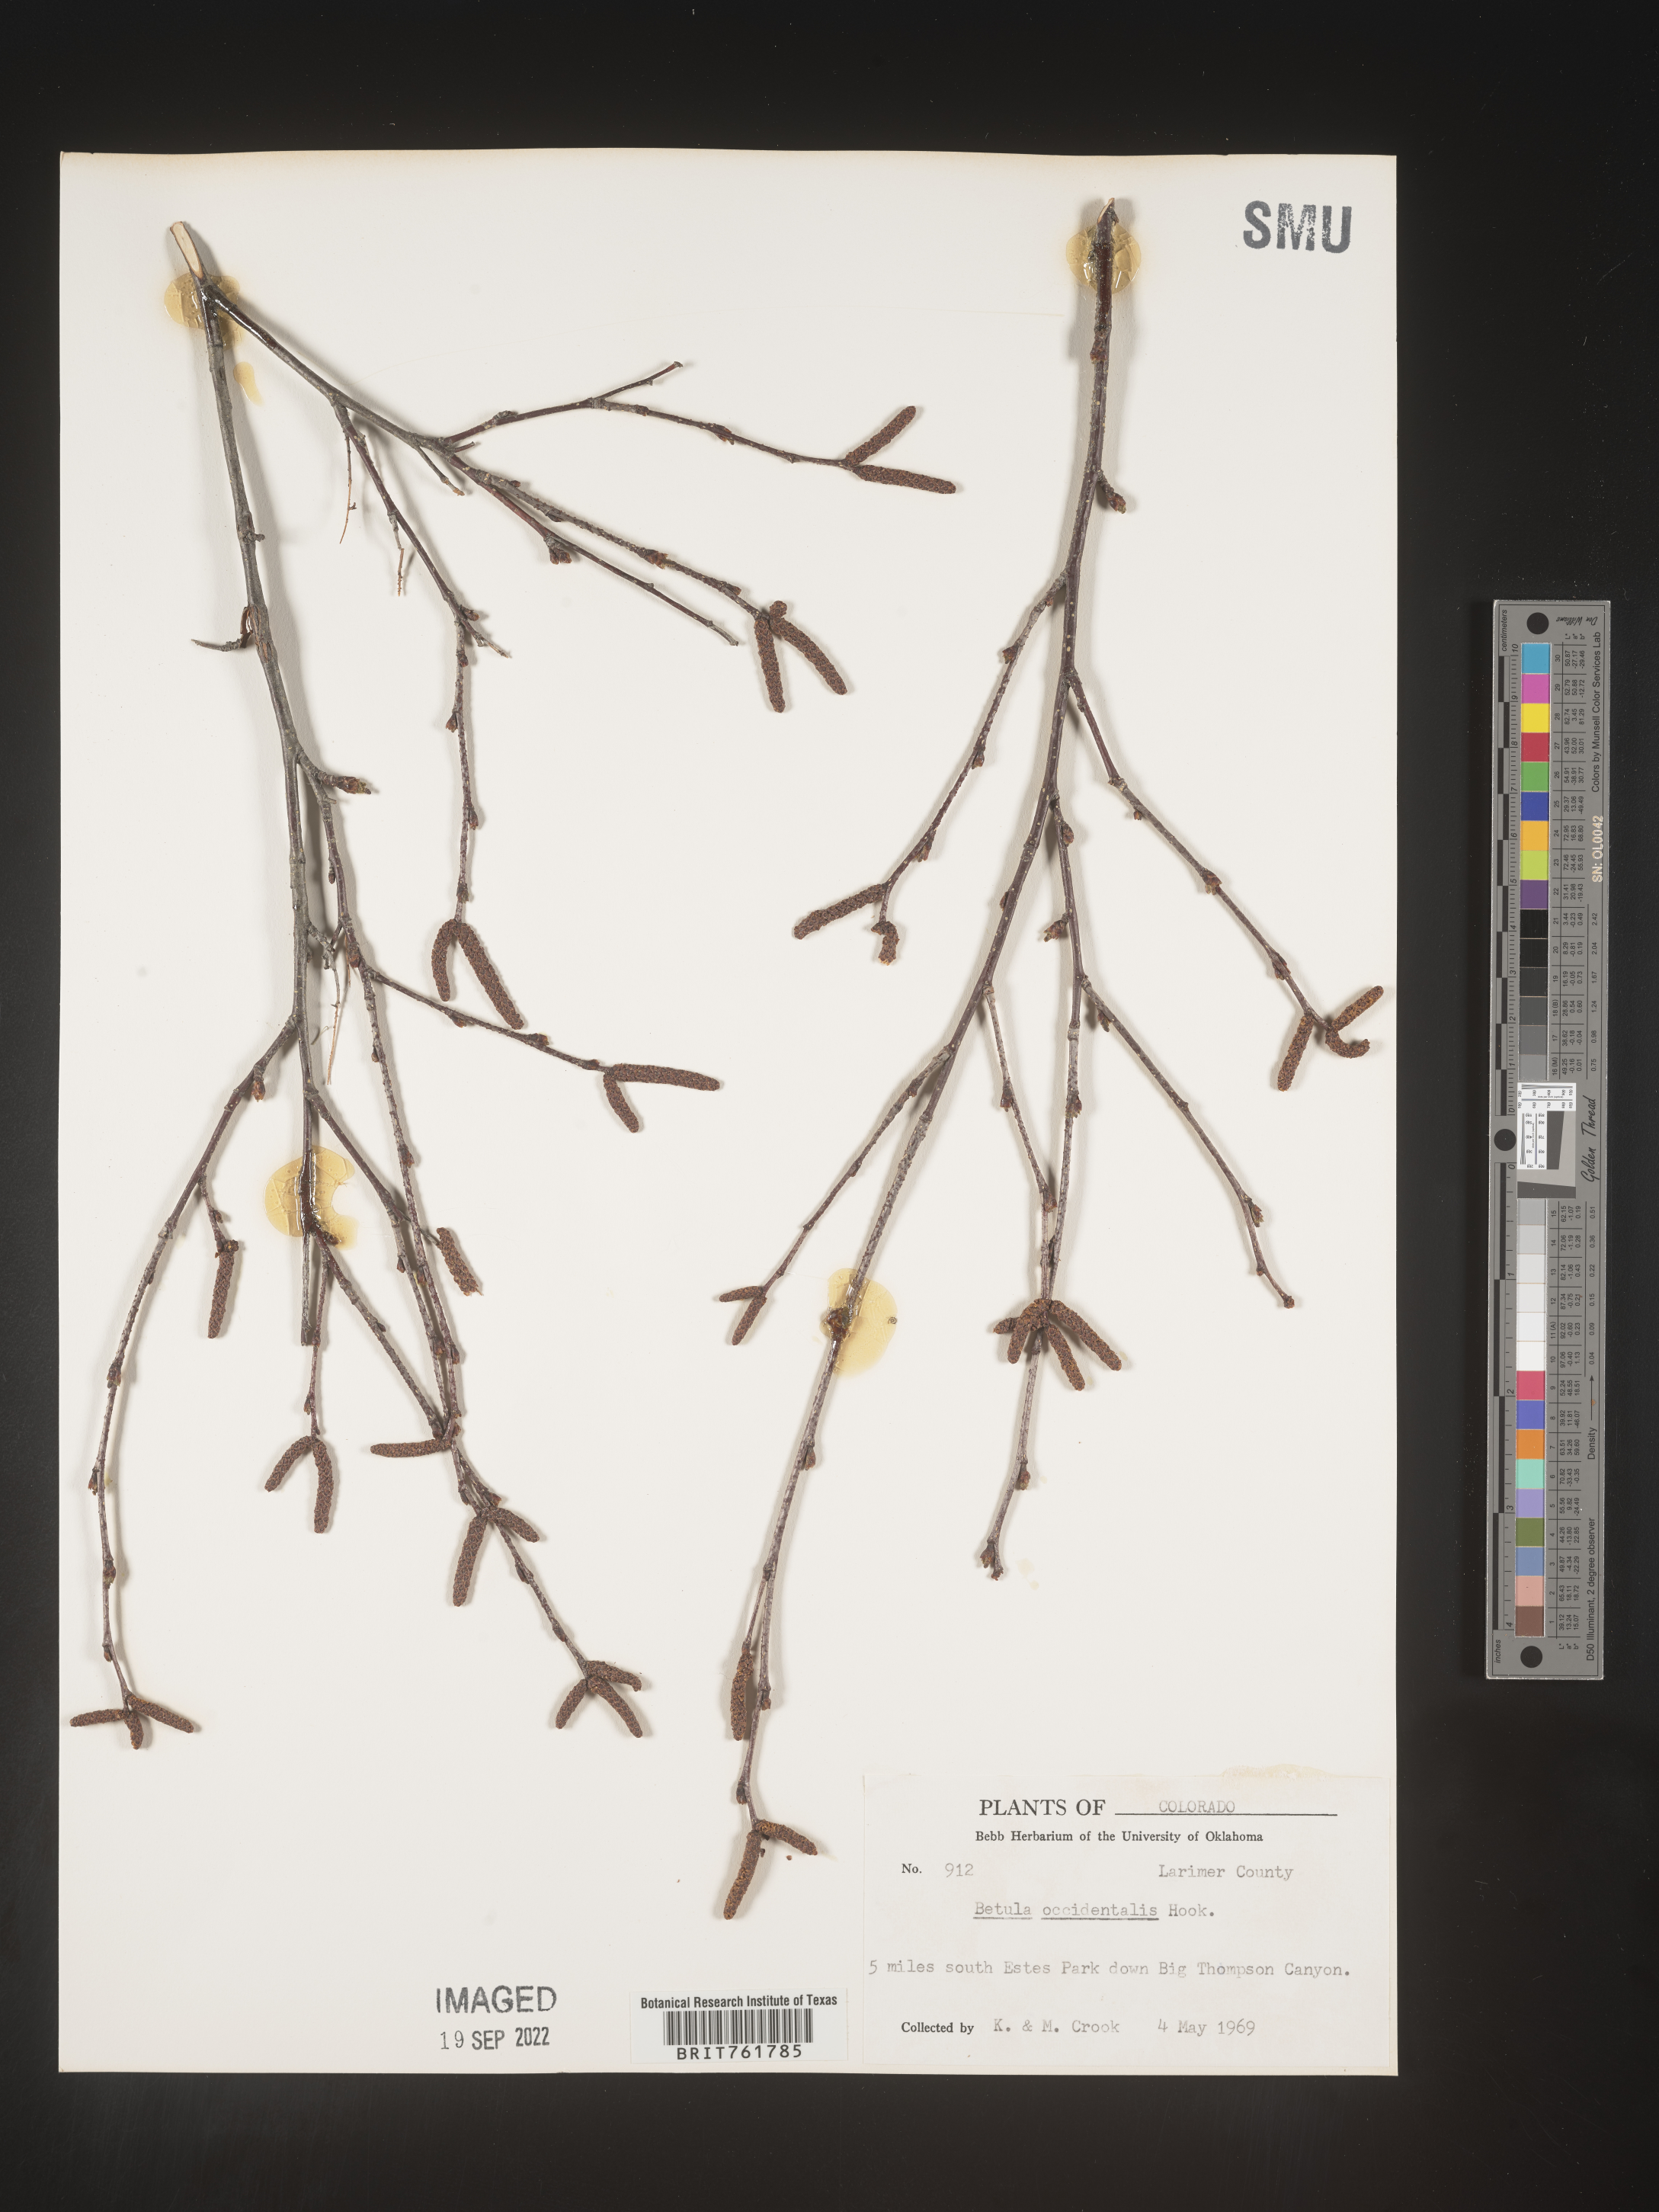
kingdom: Plantae
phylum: Tracheophyta
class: Magnoliopsida
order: Fagales
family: Betulaceae
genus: Betula
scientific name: Betula occidentalis
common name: River birch
